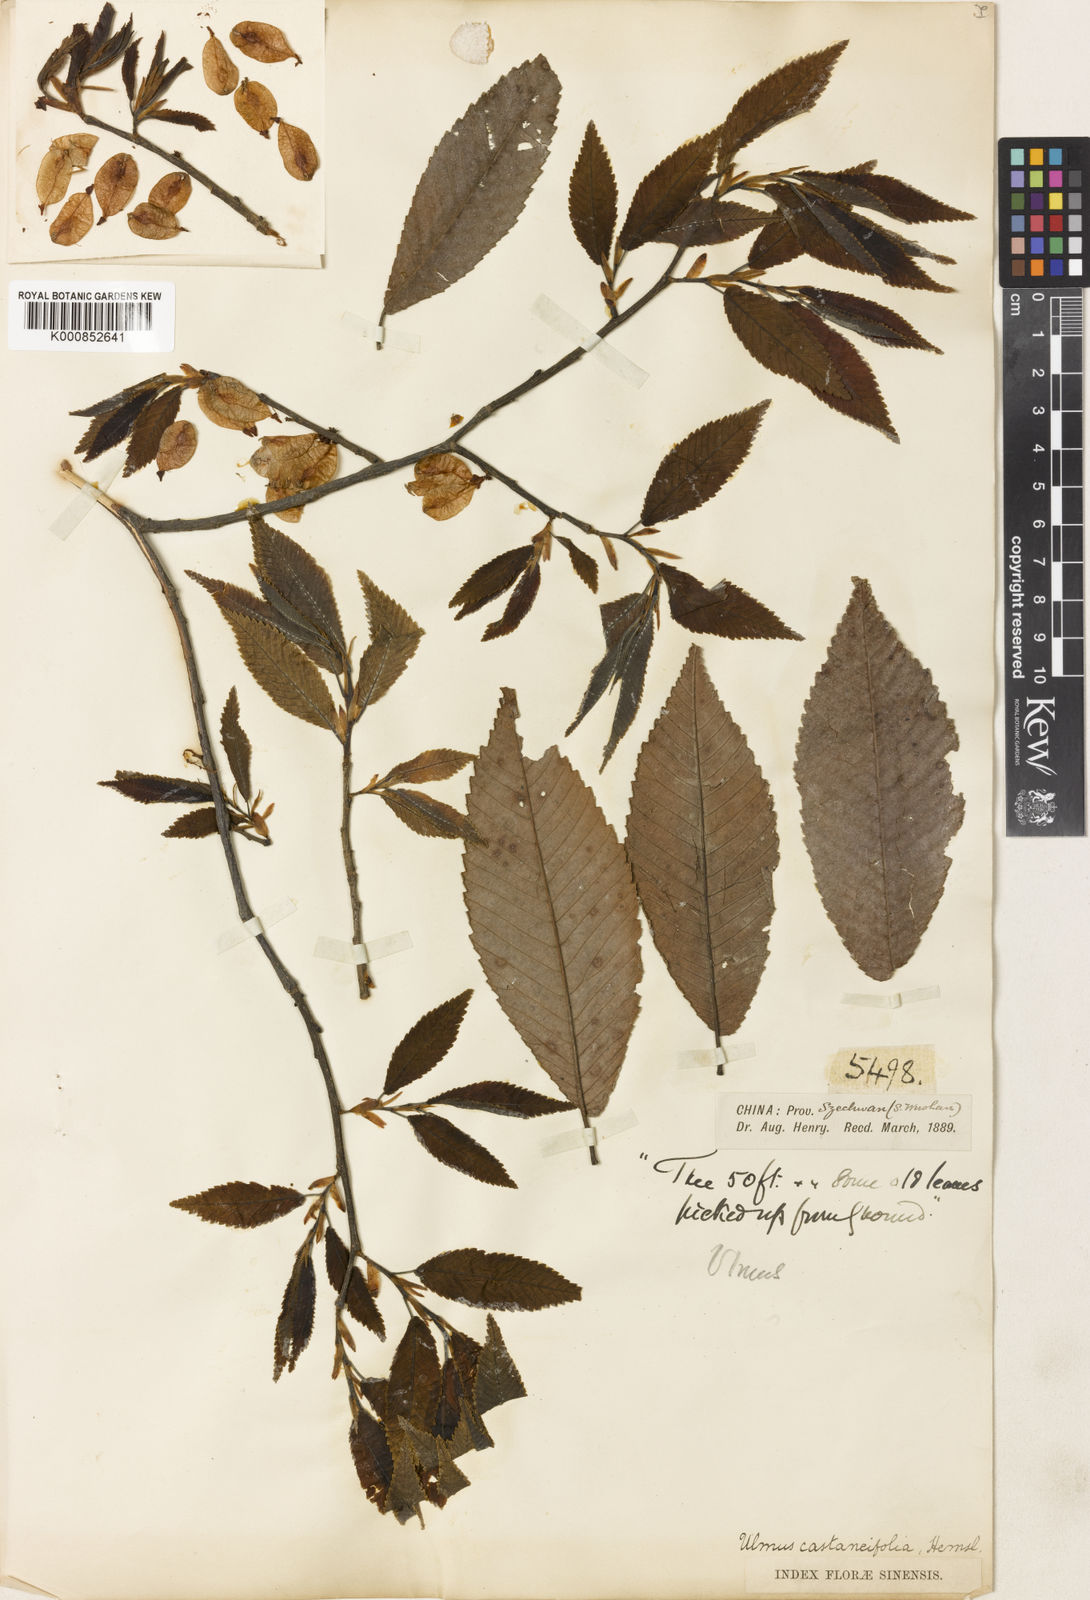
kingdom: Plantae
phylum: Tracheophyta
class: Magnoliopsida
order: Rosales
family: Ulmaceae
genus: Ulmus
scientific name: Ulmus castaneifolia
